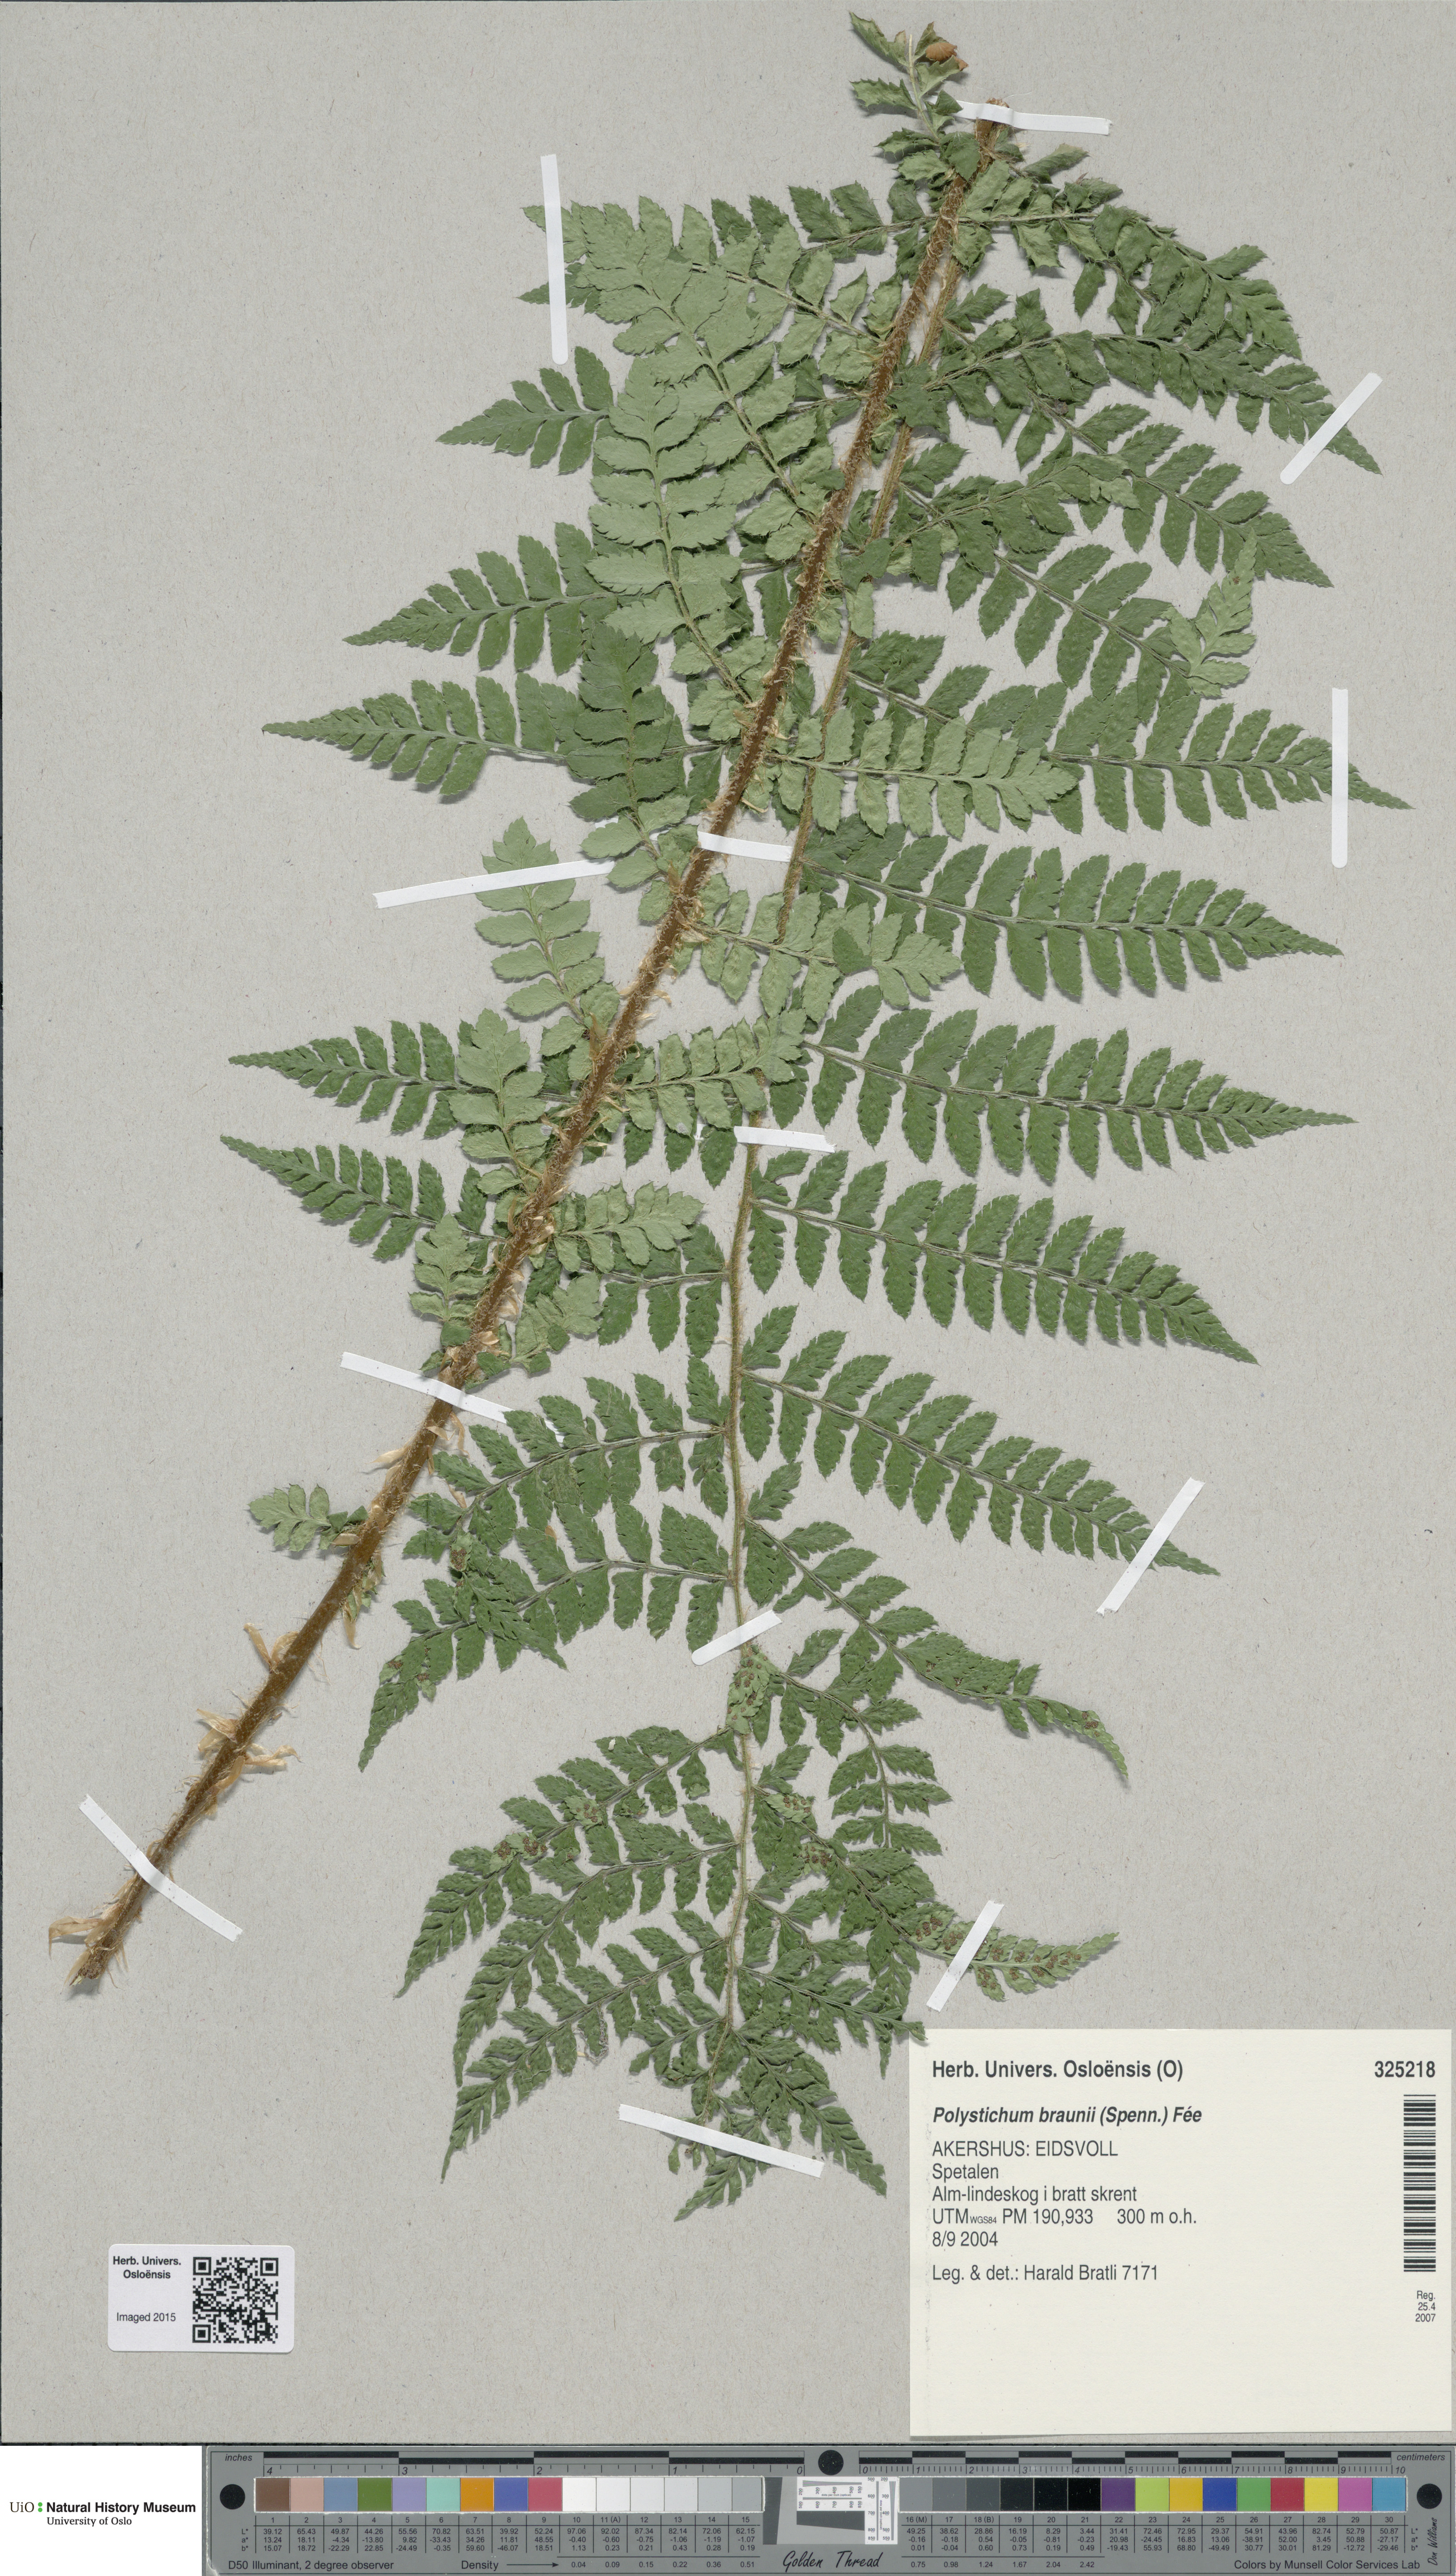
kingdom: Plantae
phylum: Tracheophyta
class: Polypodiopsida
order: Polypodiales
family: Dryopteridaceae
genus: Polystichum
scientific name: Polystichum braunii
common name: Braun's holly fern
